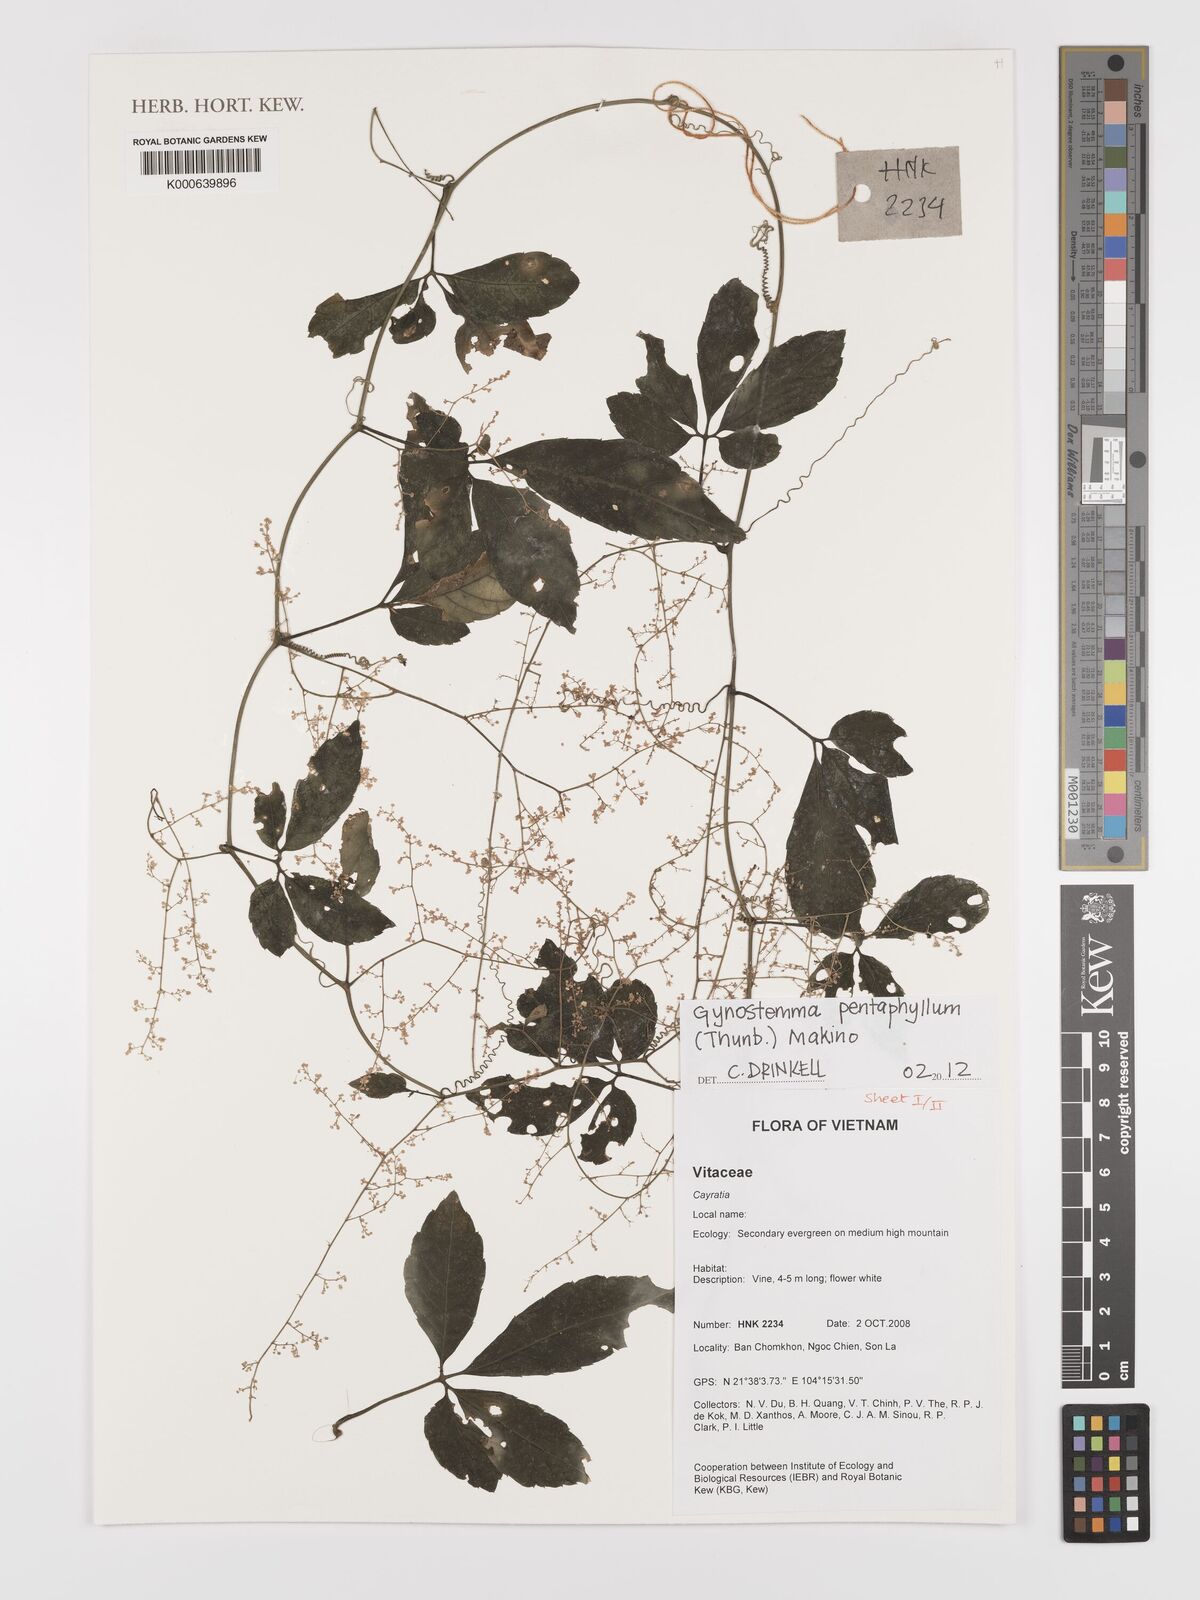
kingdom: Plantae
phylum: Tracheophyta
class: Magnoliopsida
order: Cucurbitales
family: Cucurbitaceae
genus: Gynostemma
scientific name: Gynostemma pentaphyllum
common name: Gynostemma
